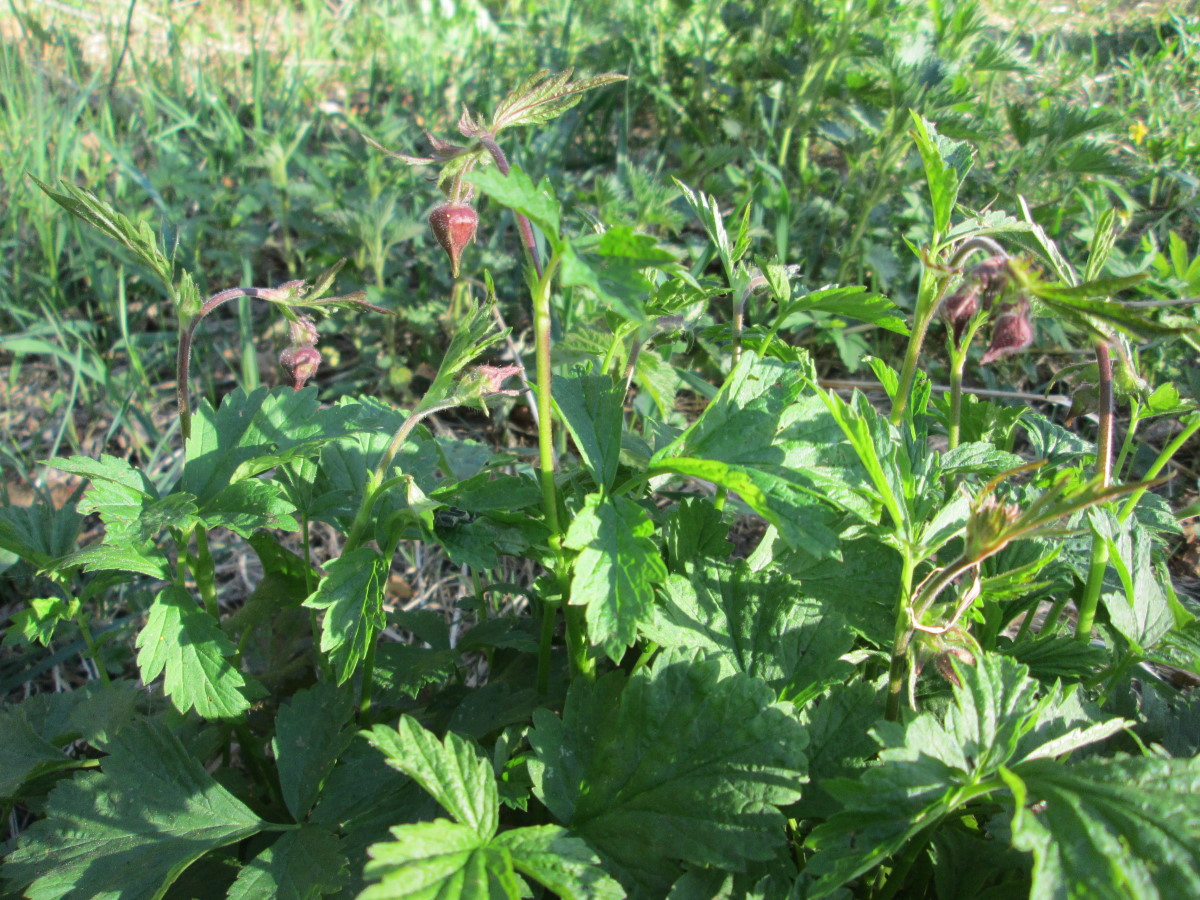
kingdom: Plantae
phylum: Tracheophyta
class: Magnoliopsida
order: Rosales
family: Rosaceae
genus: Geum
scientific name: Geum
